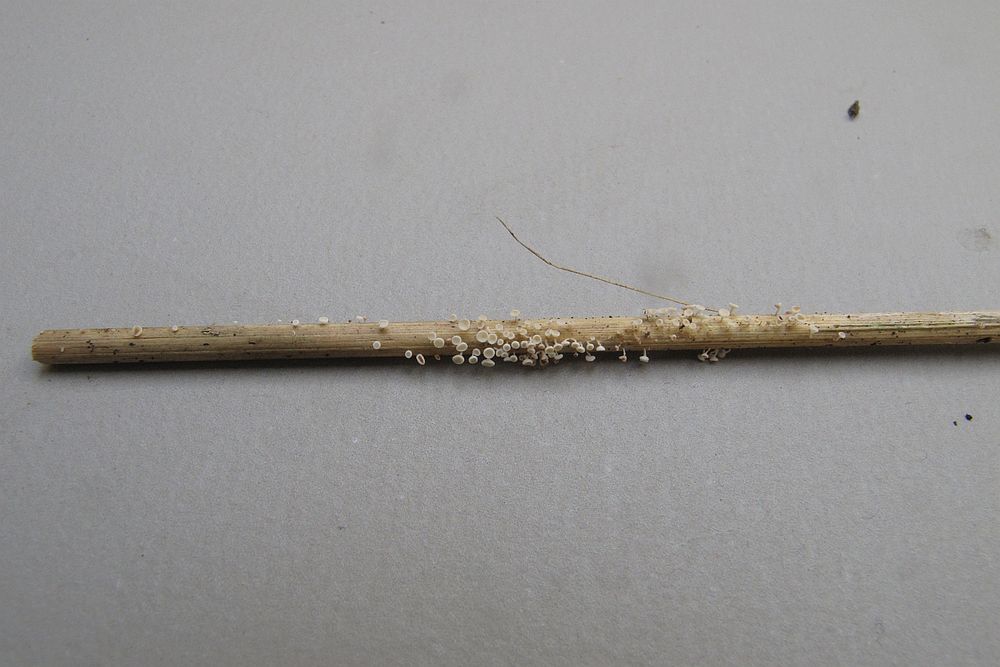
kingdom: Fungi
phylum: Ascomycota
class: Leotiomycetes
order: Helotiales
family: Lachnaceae
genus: Lachnum
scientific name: Lachnum tenuissimum
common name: spinkel frynseskive
